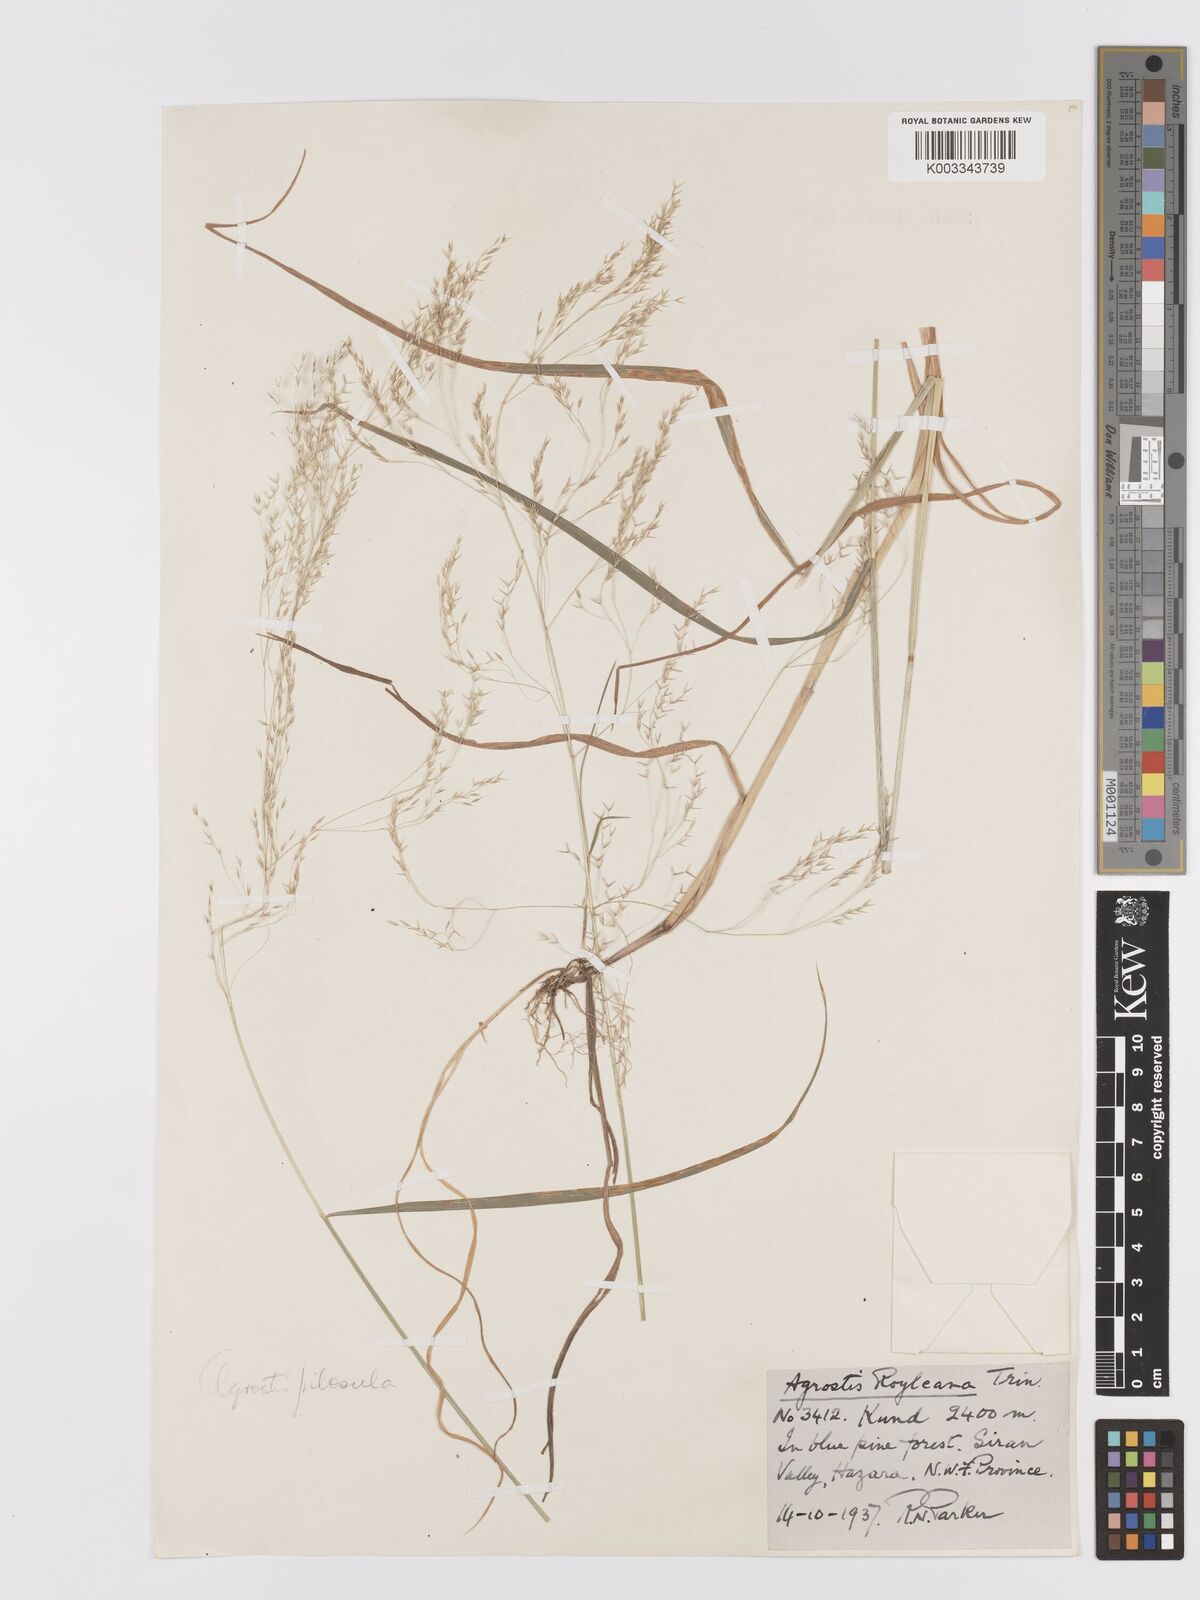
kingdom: Plantae
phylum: Tracheophyta
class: Liliopsida
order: Poales
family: Poaceae
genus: Agrostis
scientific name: Agrostis pilosula
